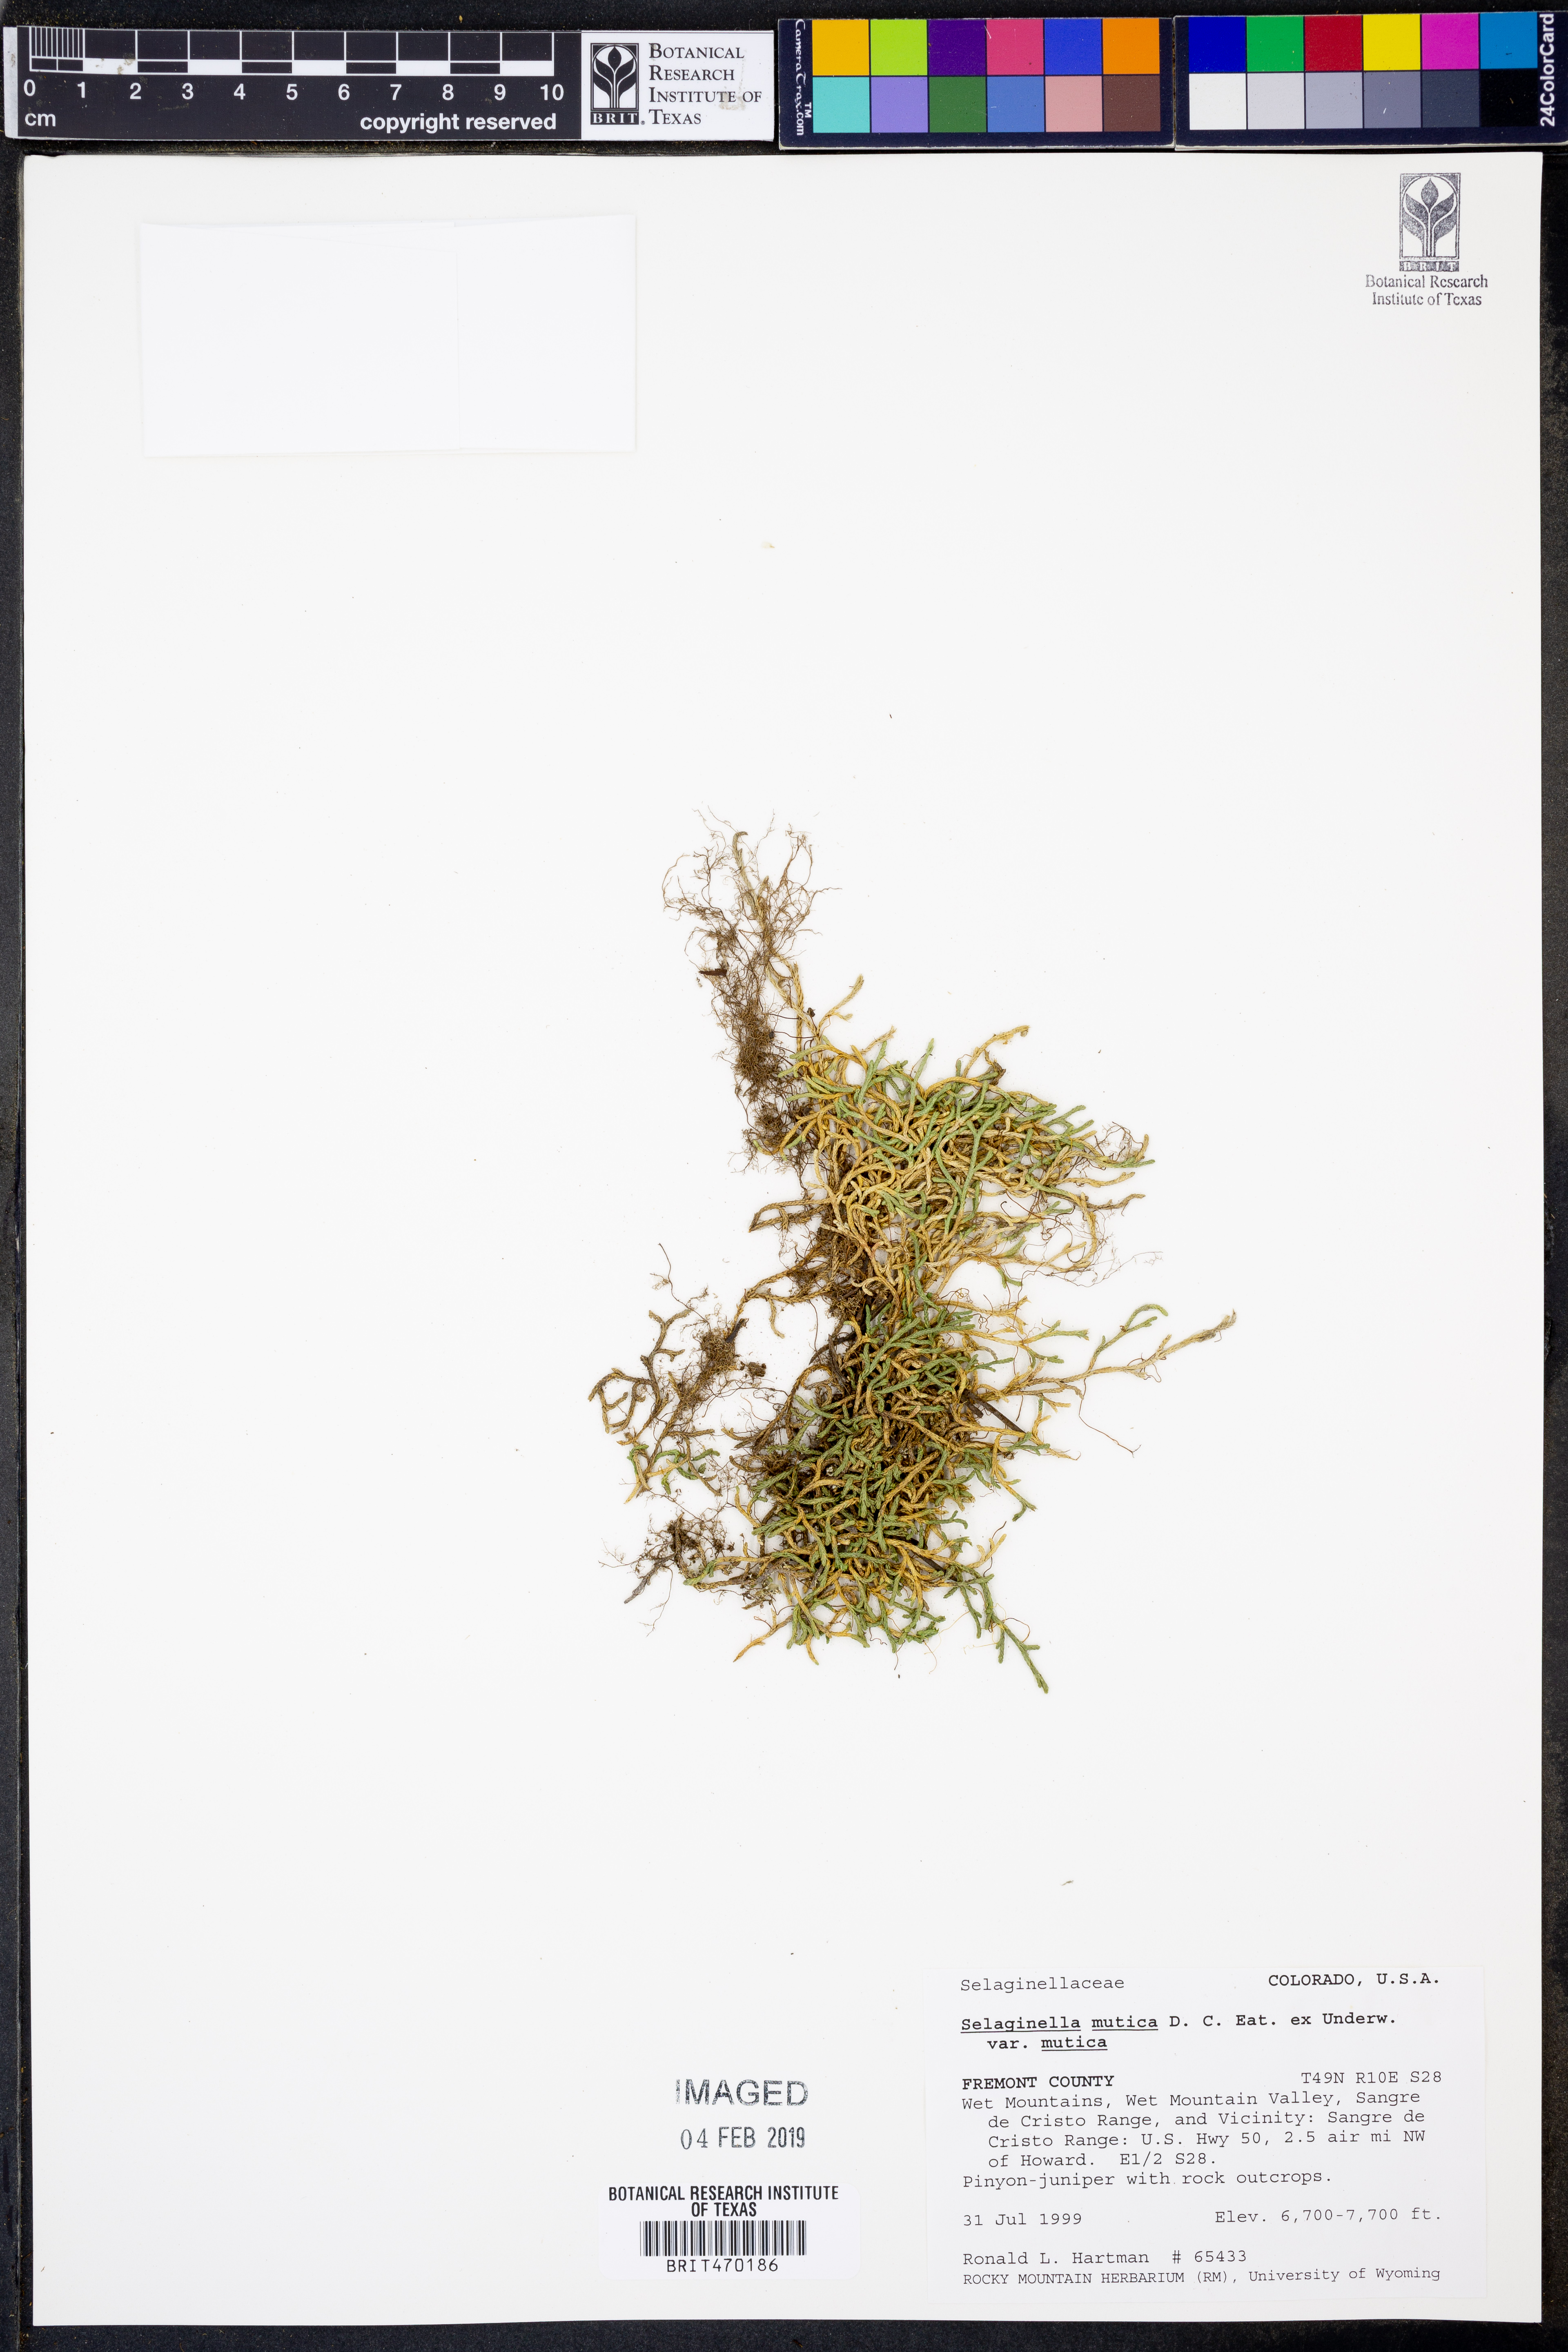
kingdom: Plantae
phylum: Tracheophyta
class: Lycopodiopsida
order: Selaginellales
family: Selaginellaceae
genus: Selaginella
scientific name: Selaginella mutica
